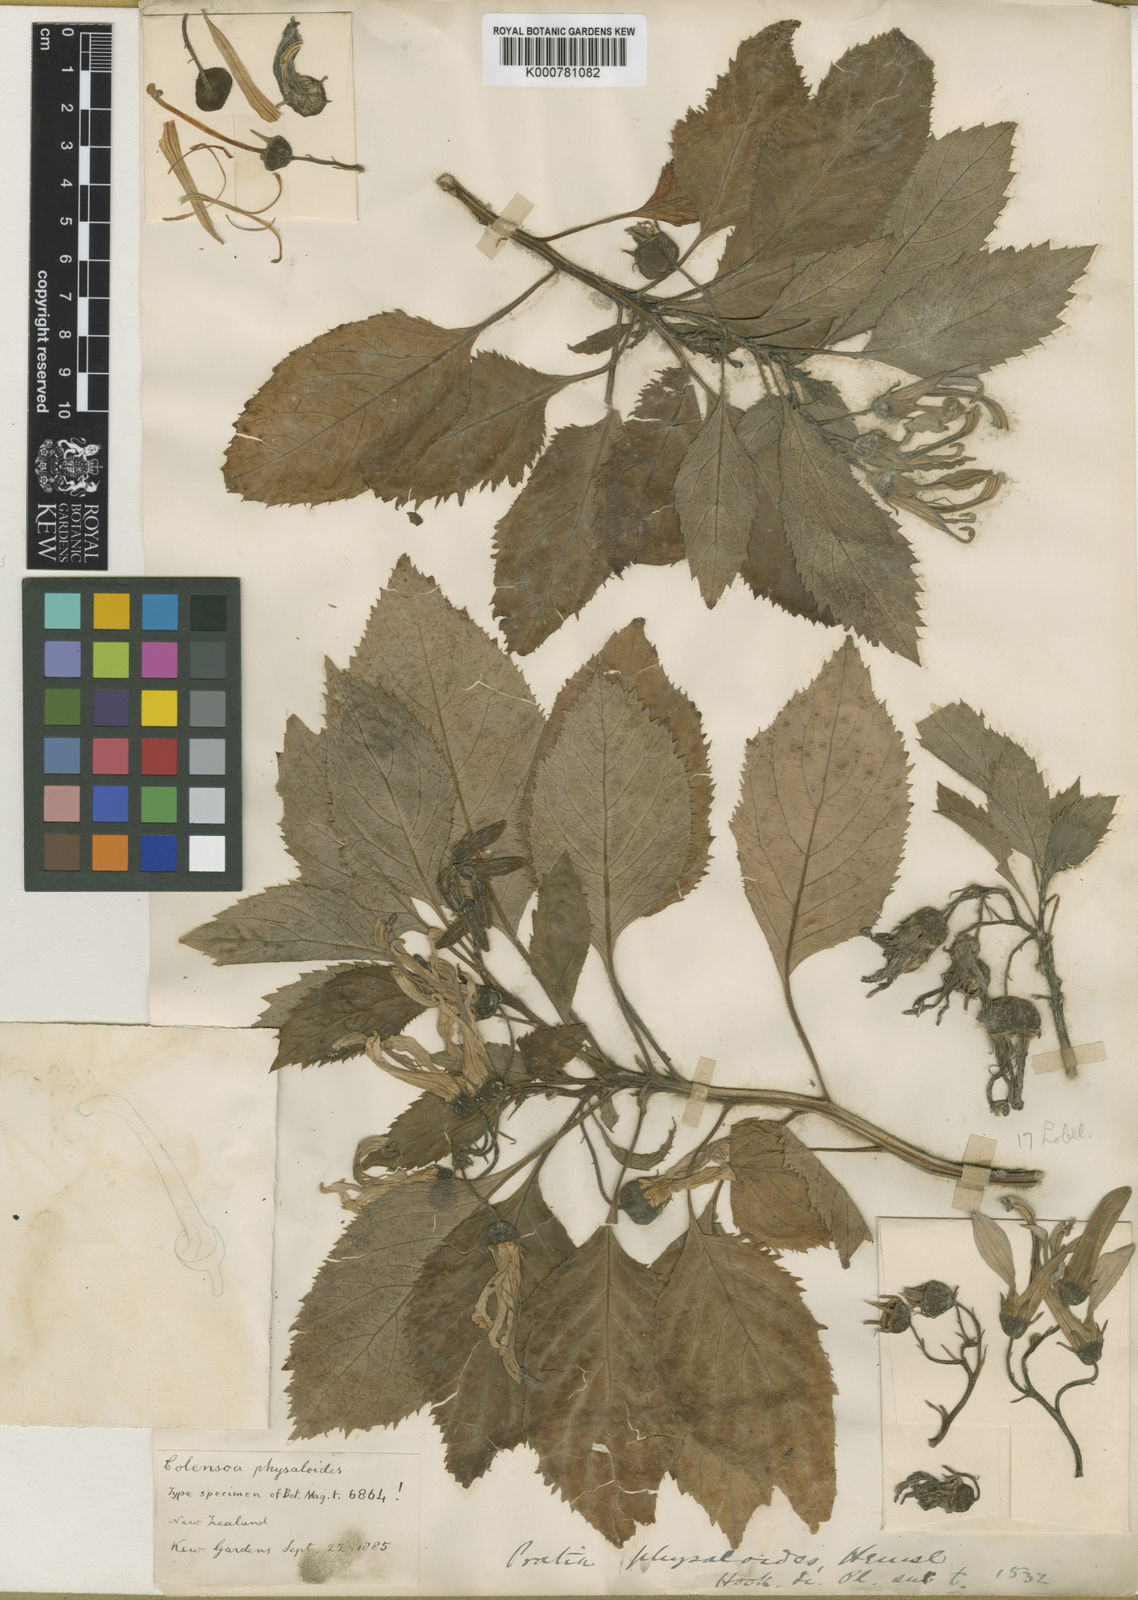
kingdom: Plantae
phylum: Tracheophyta
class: Magnoliopsida
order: Asterales
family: Campanulaceae
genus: Lobelia
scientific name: Lobelia physaloides
